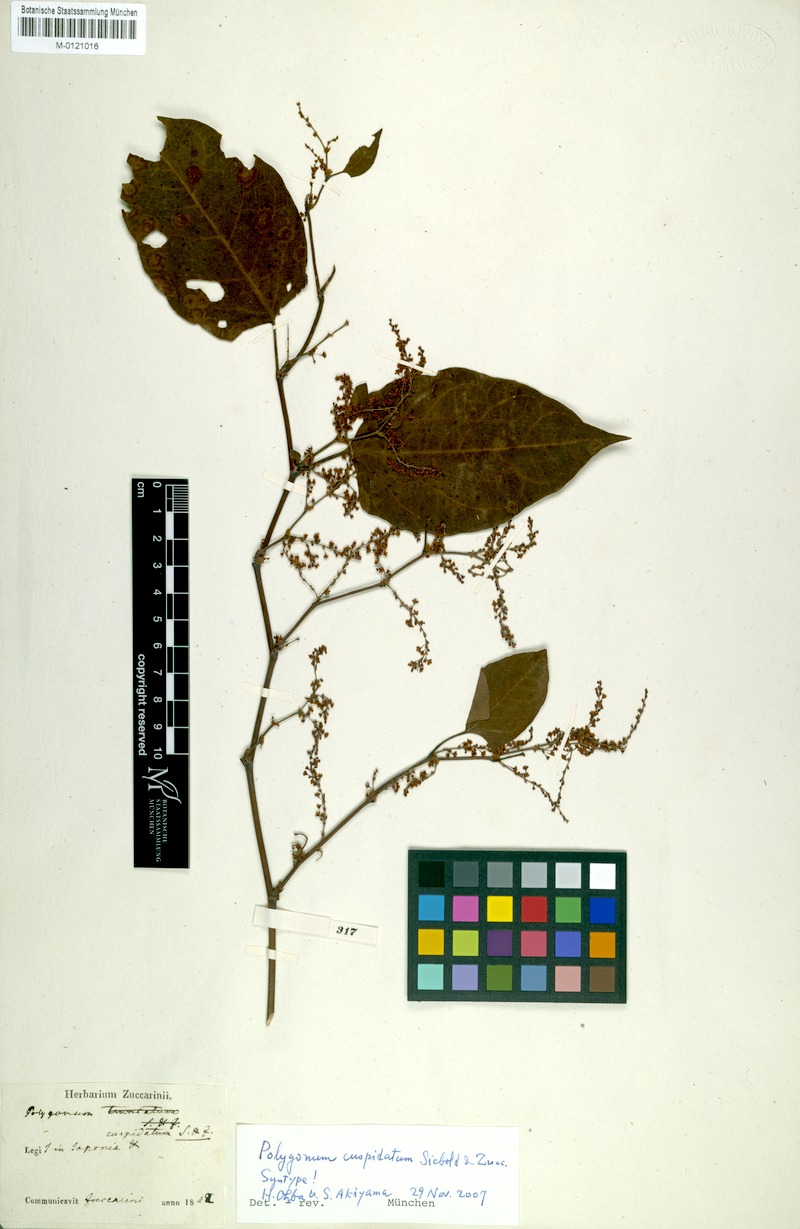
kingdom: Plantae
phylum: Tracheophyta
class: Magnoliopsida
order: Caryophyllales
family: Polygonaceae
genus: Reynoutria
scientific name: Reynoutria japonica
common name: Japanese knotweed
